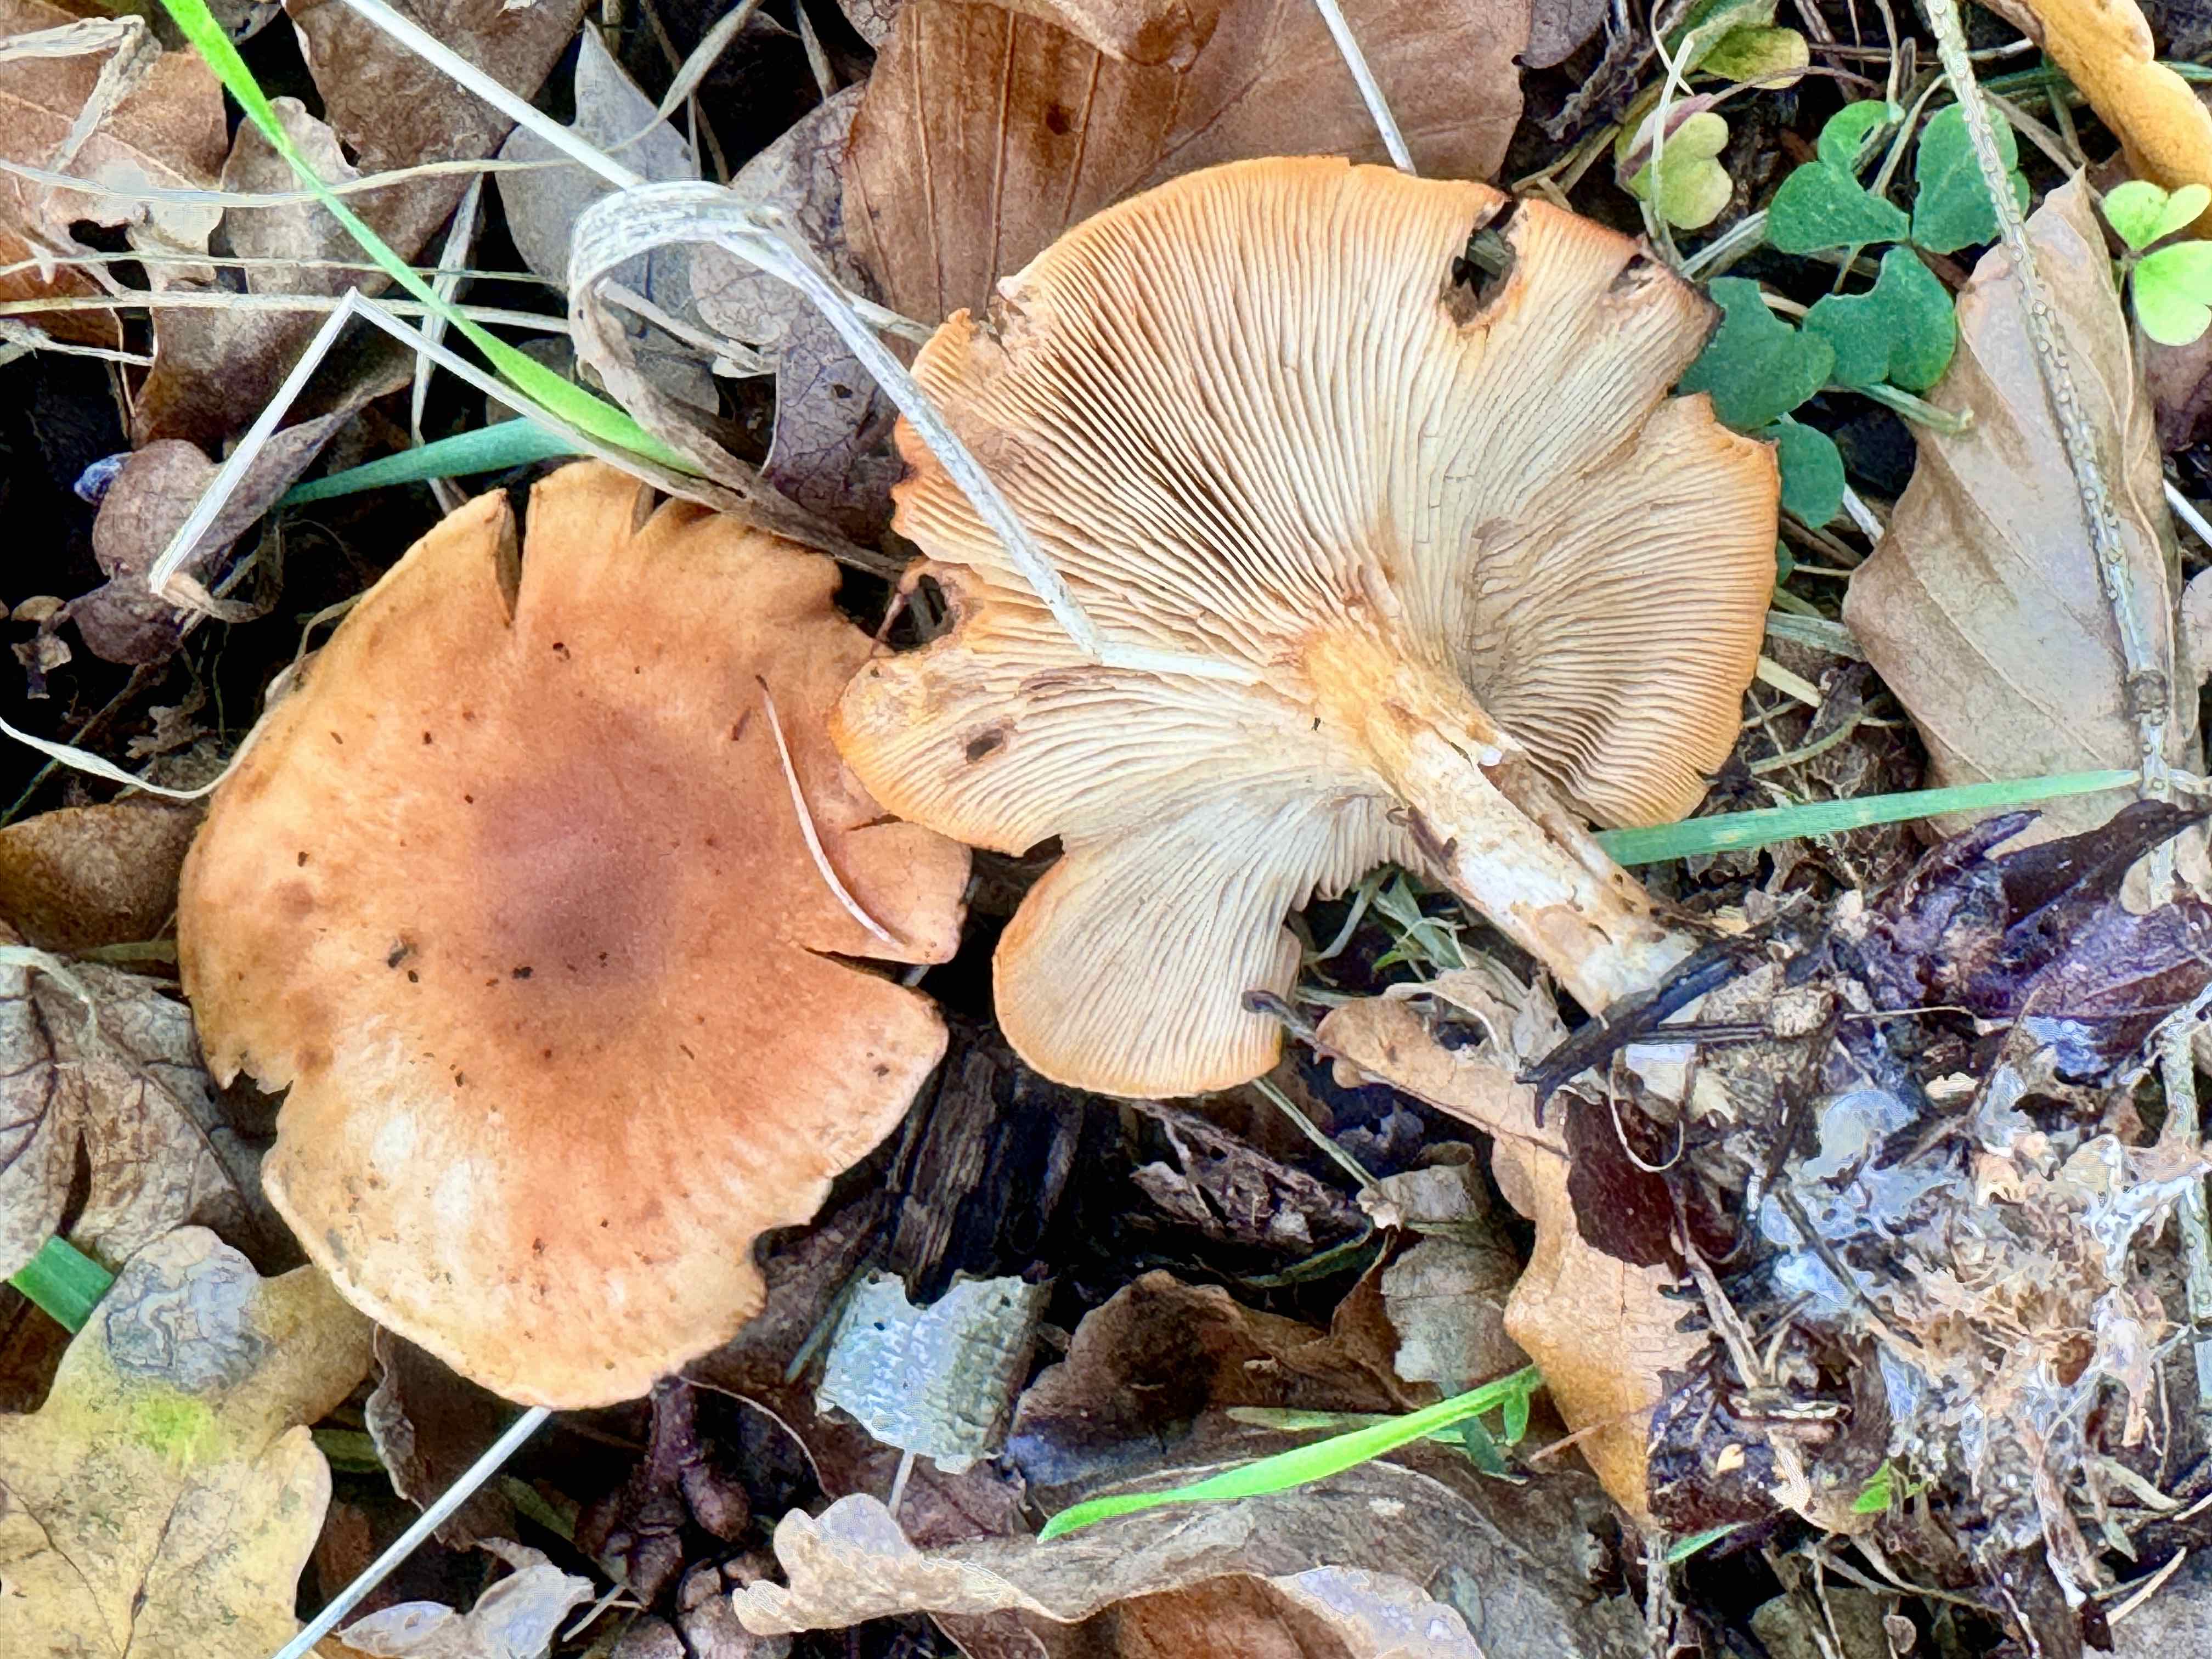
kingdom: Fungi
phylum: Basidiomycota
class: Agaricomycetes
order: Agaricales
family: Tricholomataceae
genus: Paralepista
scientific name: Paralepista flaccida
